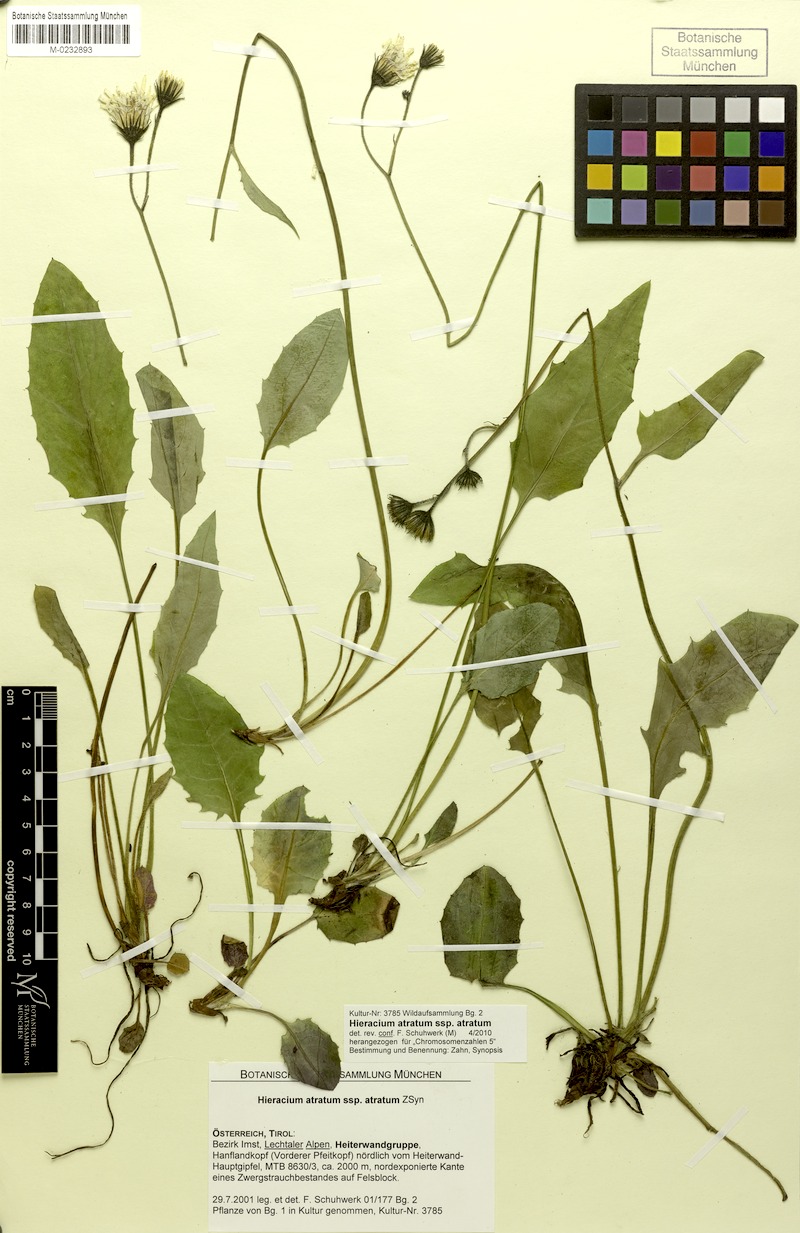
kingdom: Plantae
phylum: Tracheophyta
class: Magnoliopsida
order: Asterales
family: Asteraceae
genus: Hieracium
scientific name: Hieracium atratum
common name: Polar hawkweed
